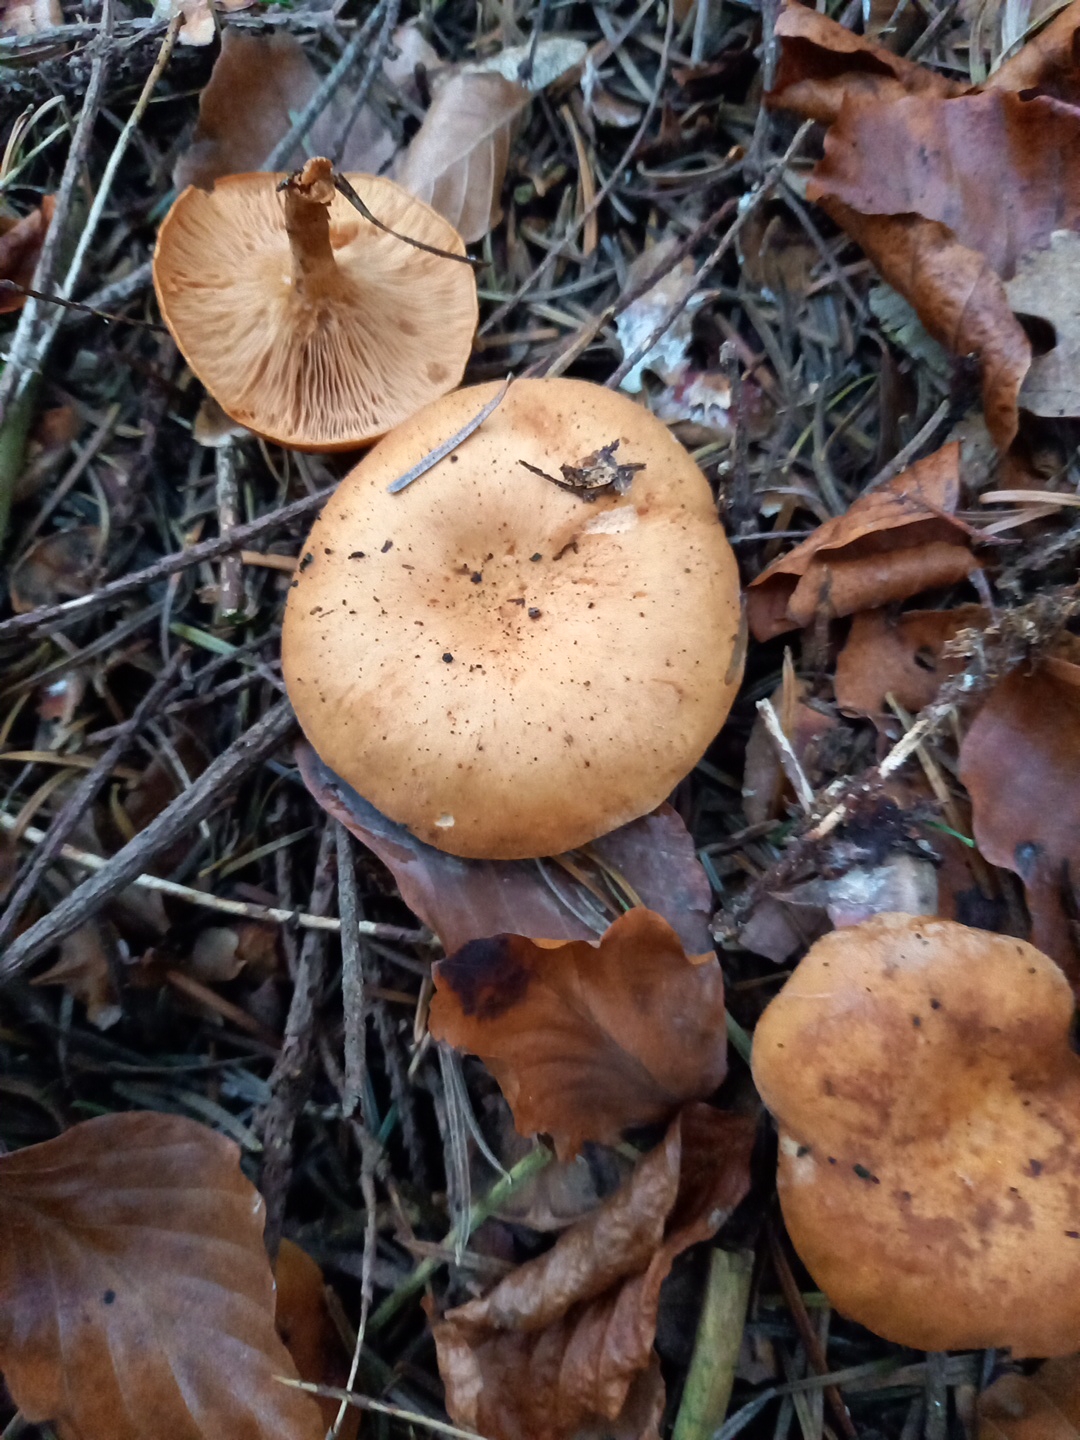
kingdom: Fungi
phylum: Basidiomycota
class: Agaricomycetes
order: Agaricales
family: Tricholomataceae
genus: Paralepista
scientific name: Paralepista flaccida
